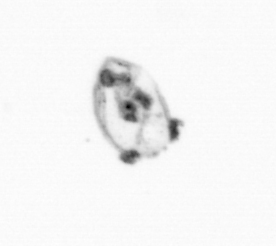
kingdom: Animalia
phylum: Cnidaria
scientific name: Cnidaria
